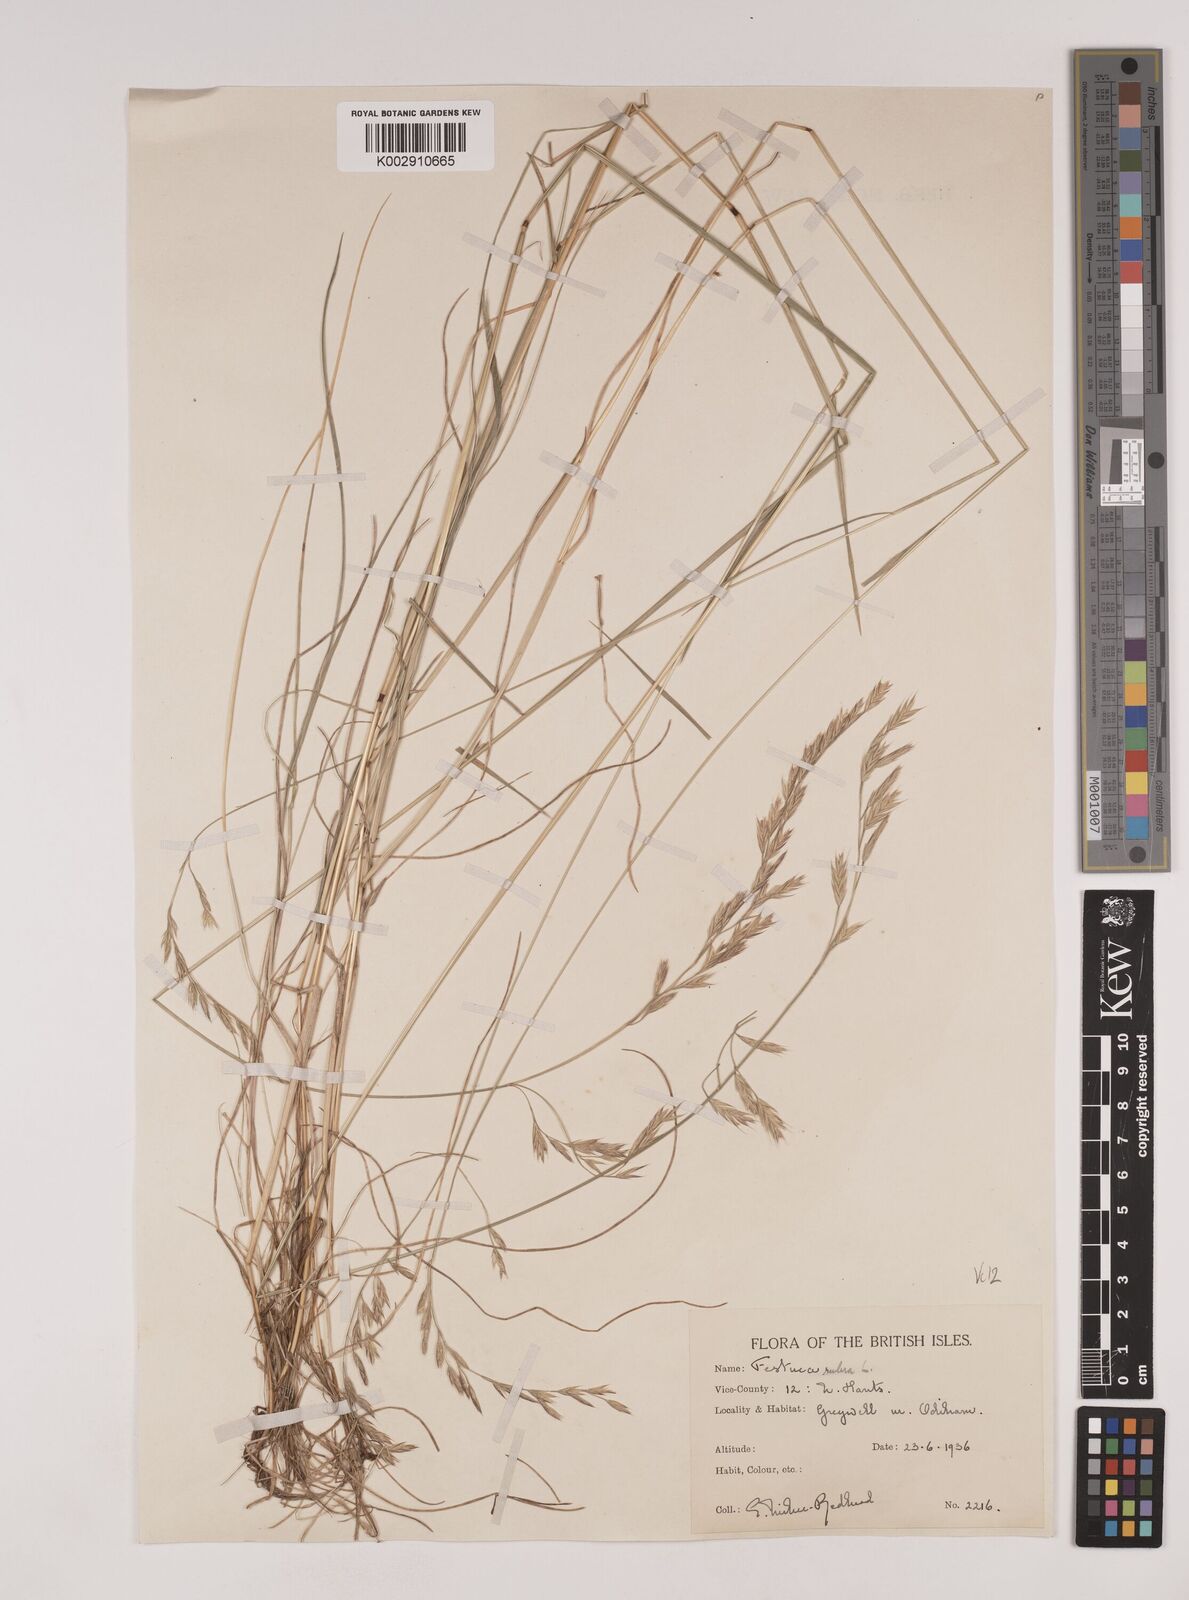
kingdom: Plantae
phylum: Tracheophyta
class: Liliopsida
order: Poales
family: Poaceae
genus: Festuca
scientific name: Festuca rubra
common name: Red fescue
